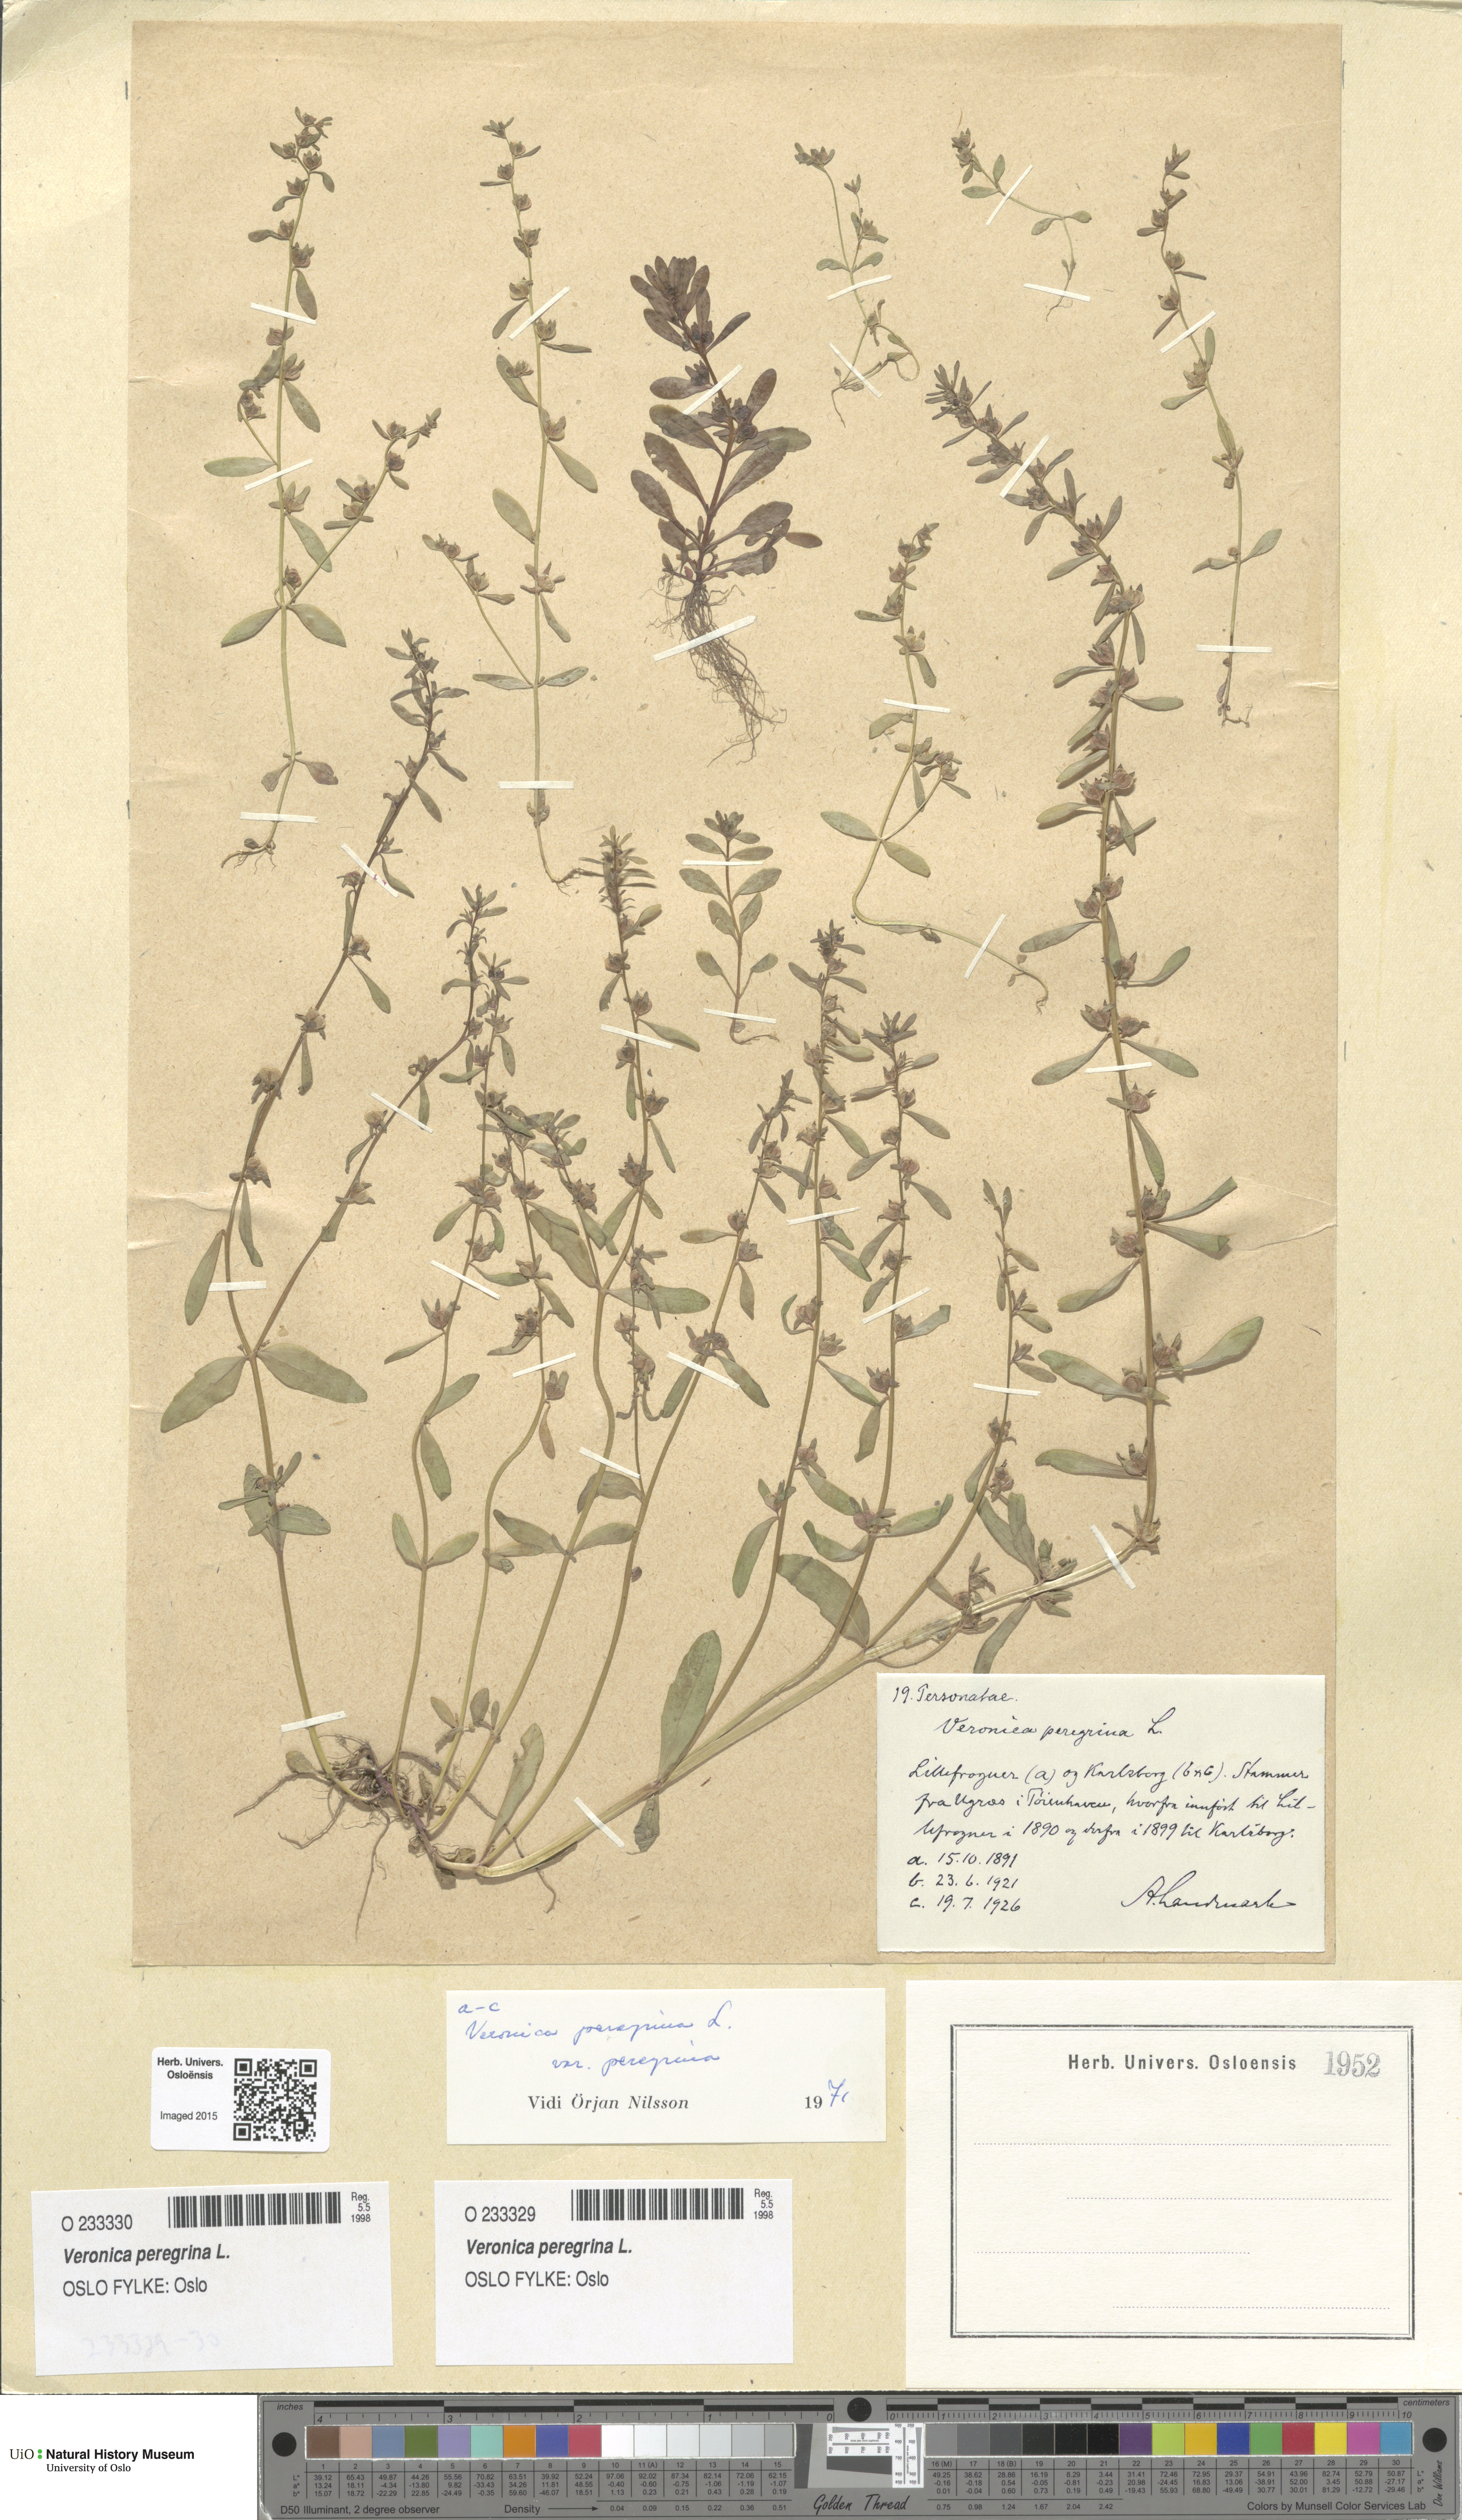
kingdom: Plantae
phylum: Tracheophyta
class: Magnoliopsida
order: Lamiales
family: Plantaginaceae
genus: Veronica
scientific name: Veronica peregrina
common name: Neckweed
